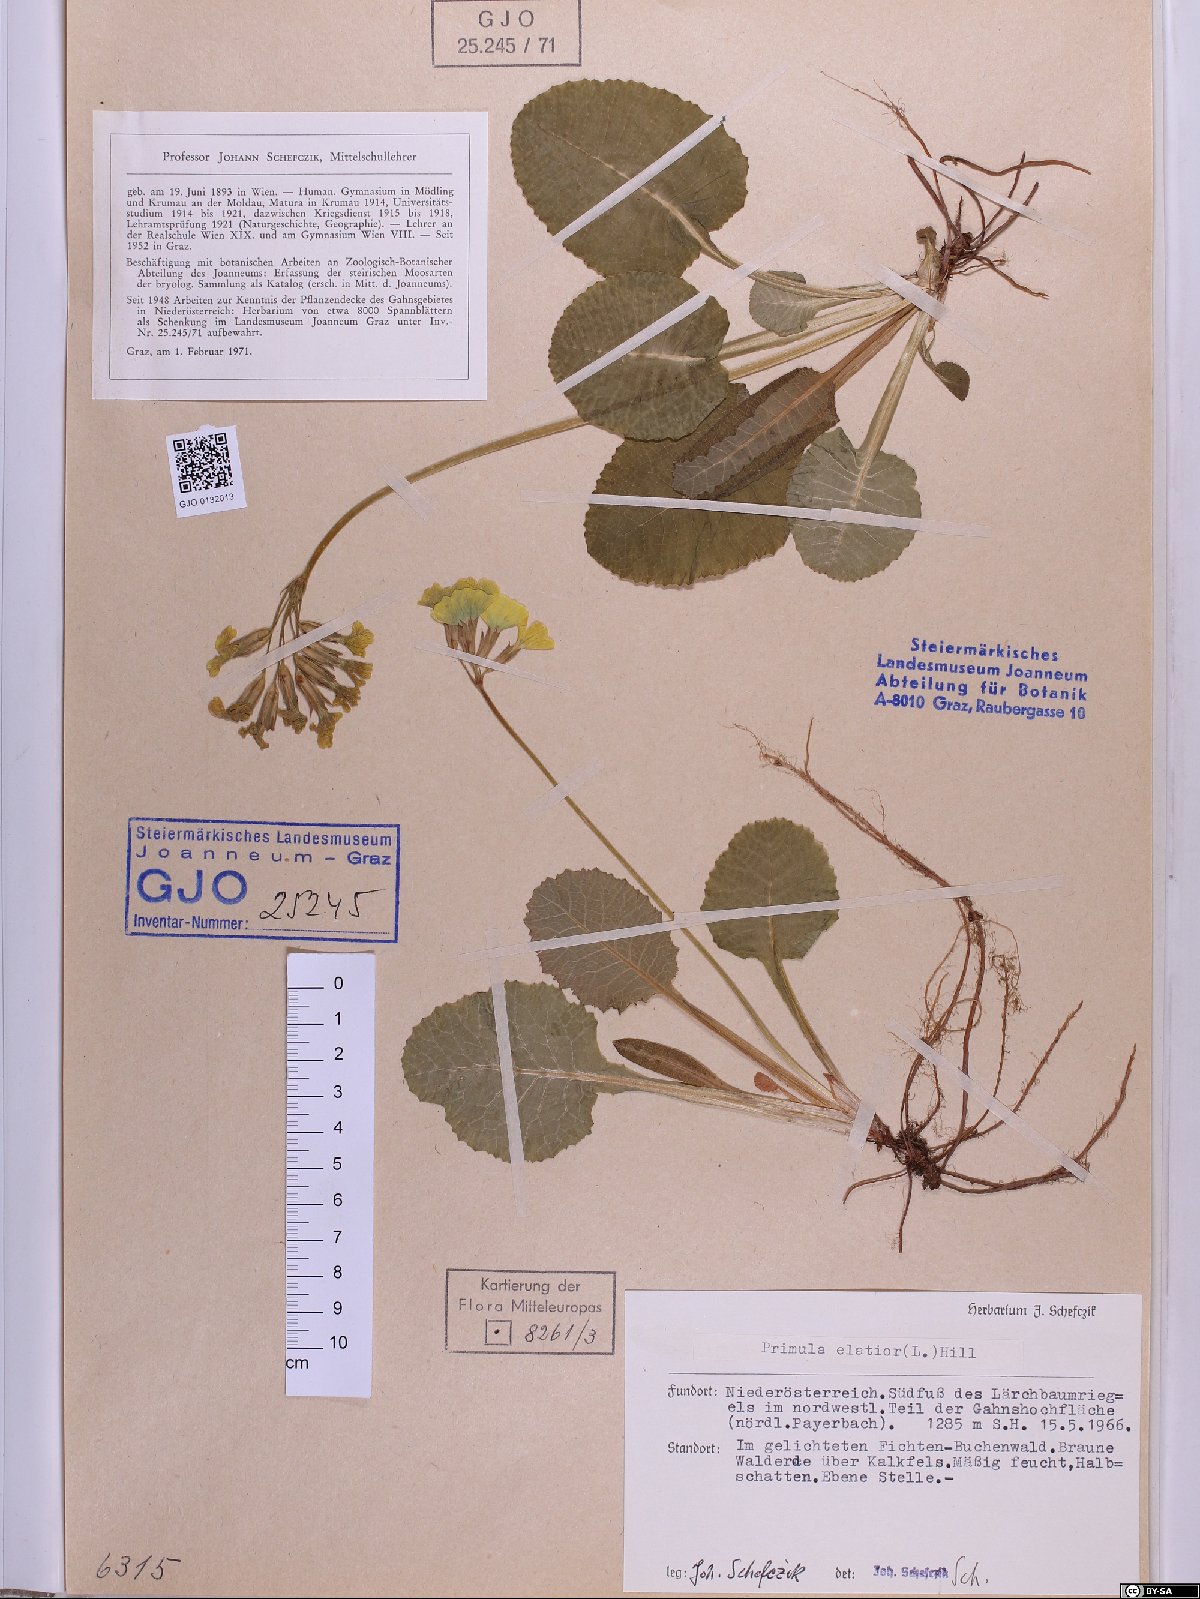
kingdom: Plantae
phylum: Tracheophyta
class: Magnoliopsida
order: Ericales
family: Primulaceae
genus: Primula
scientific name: Primula elatior
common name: Oxlip
